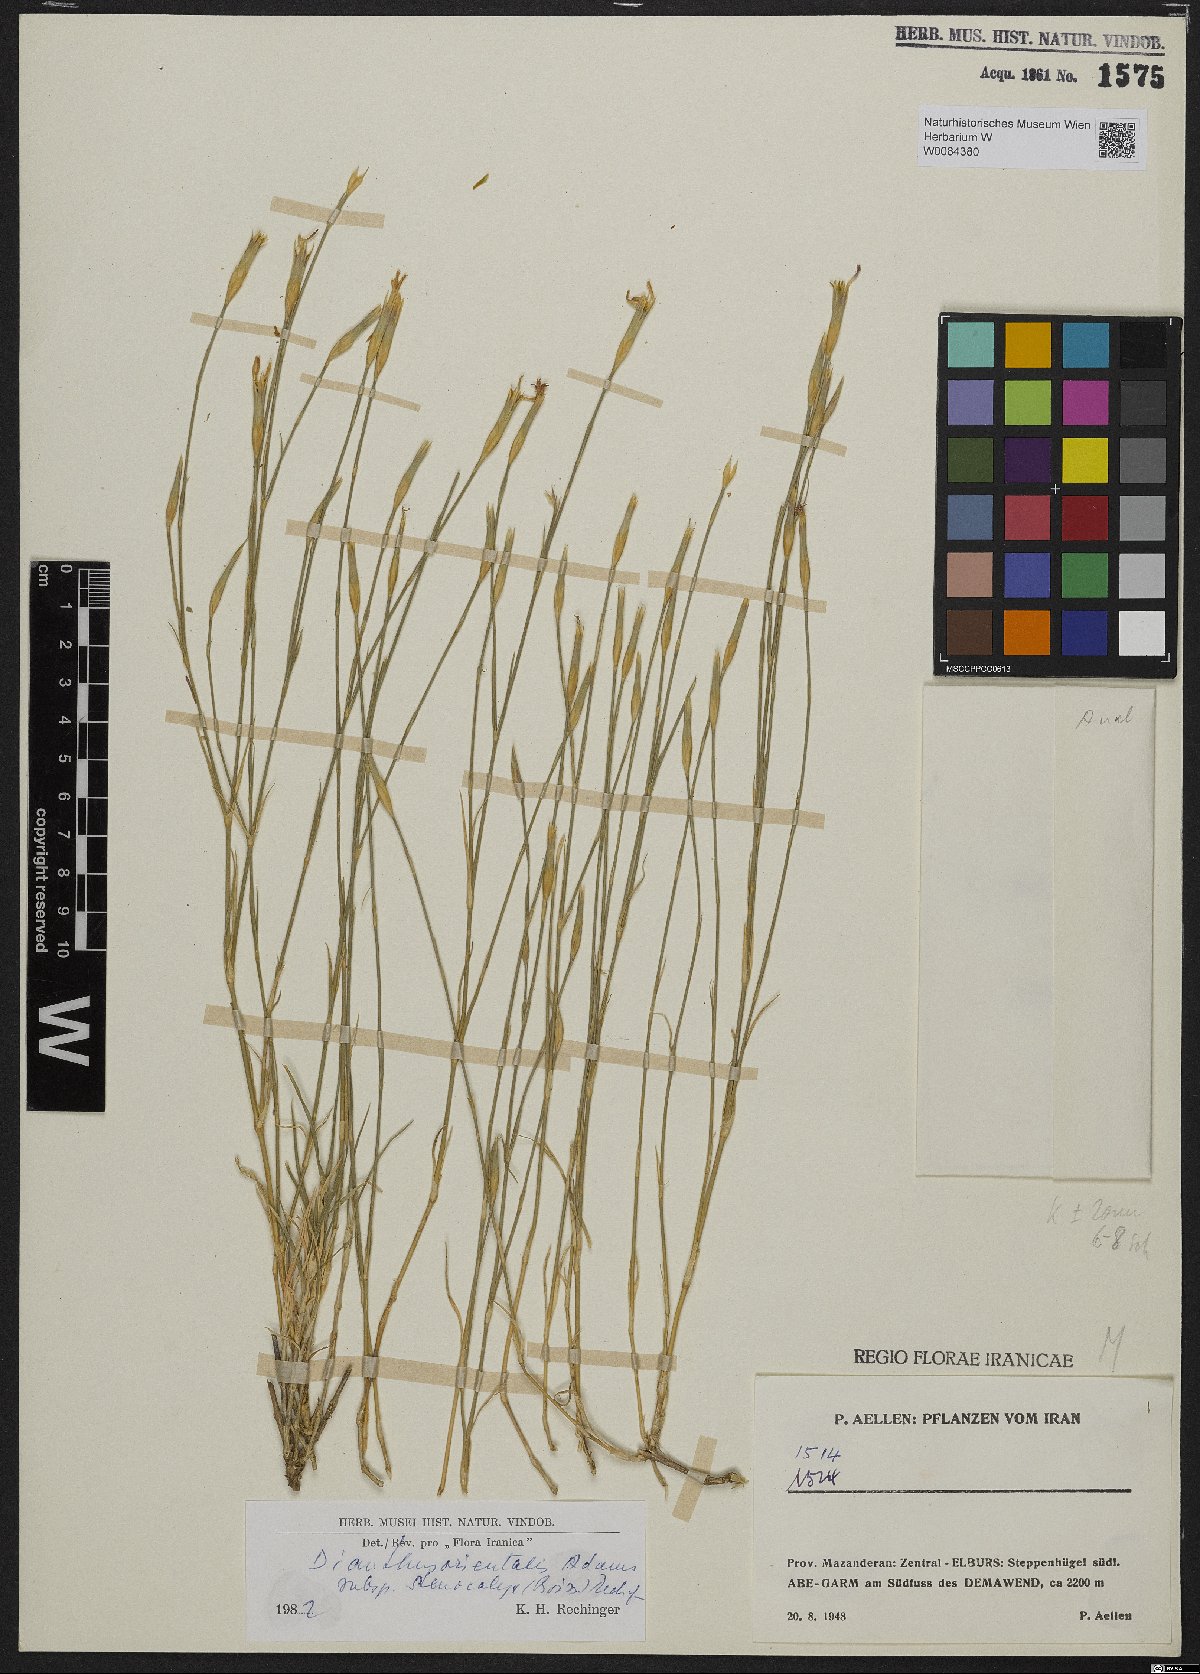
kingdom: Plantae
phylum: Tracheophyta
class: Magnoliopsida
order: Caryophyllales
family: Caryophyllaceae
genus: Dianthus
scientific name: Dianthus orientalis
